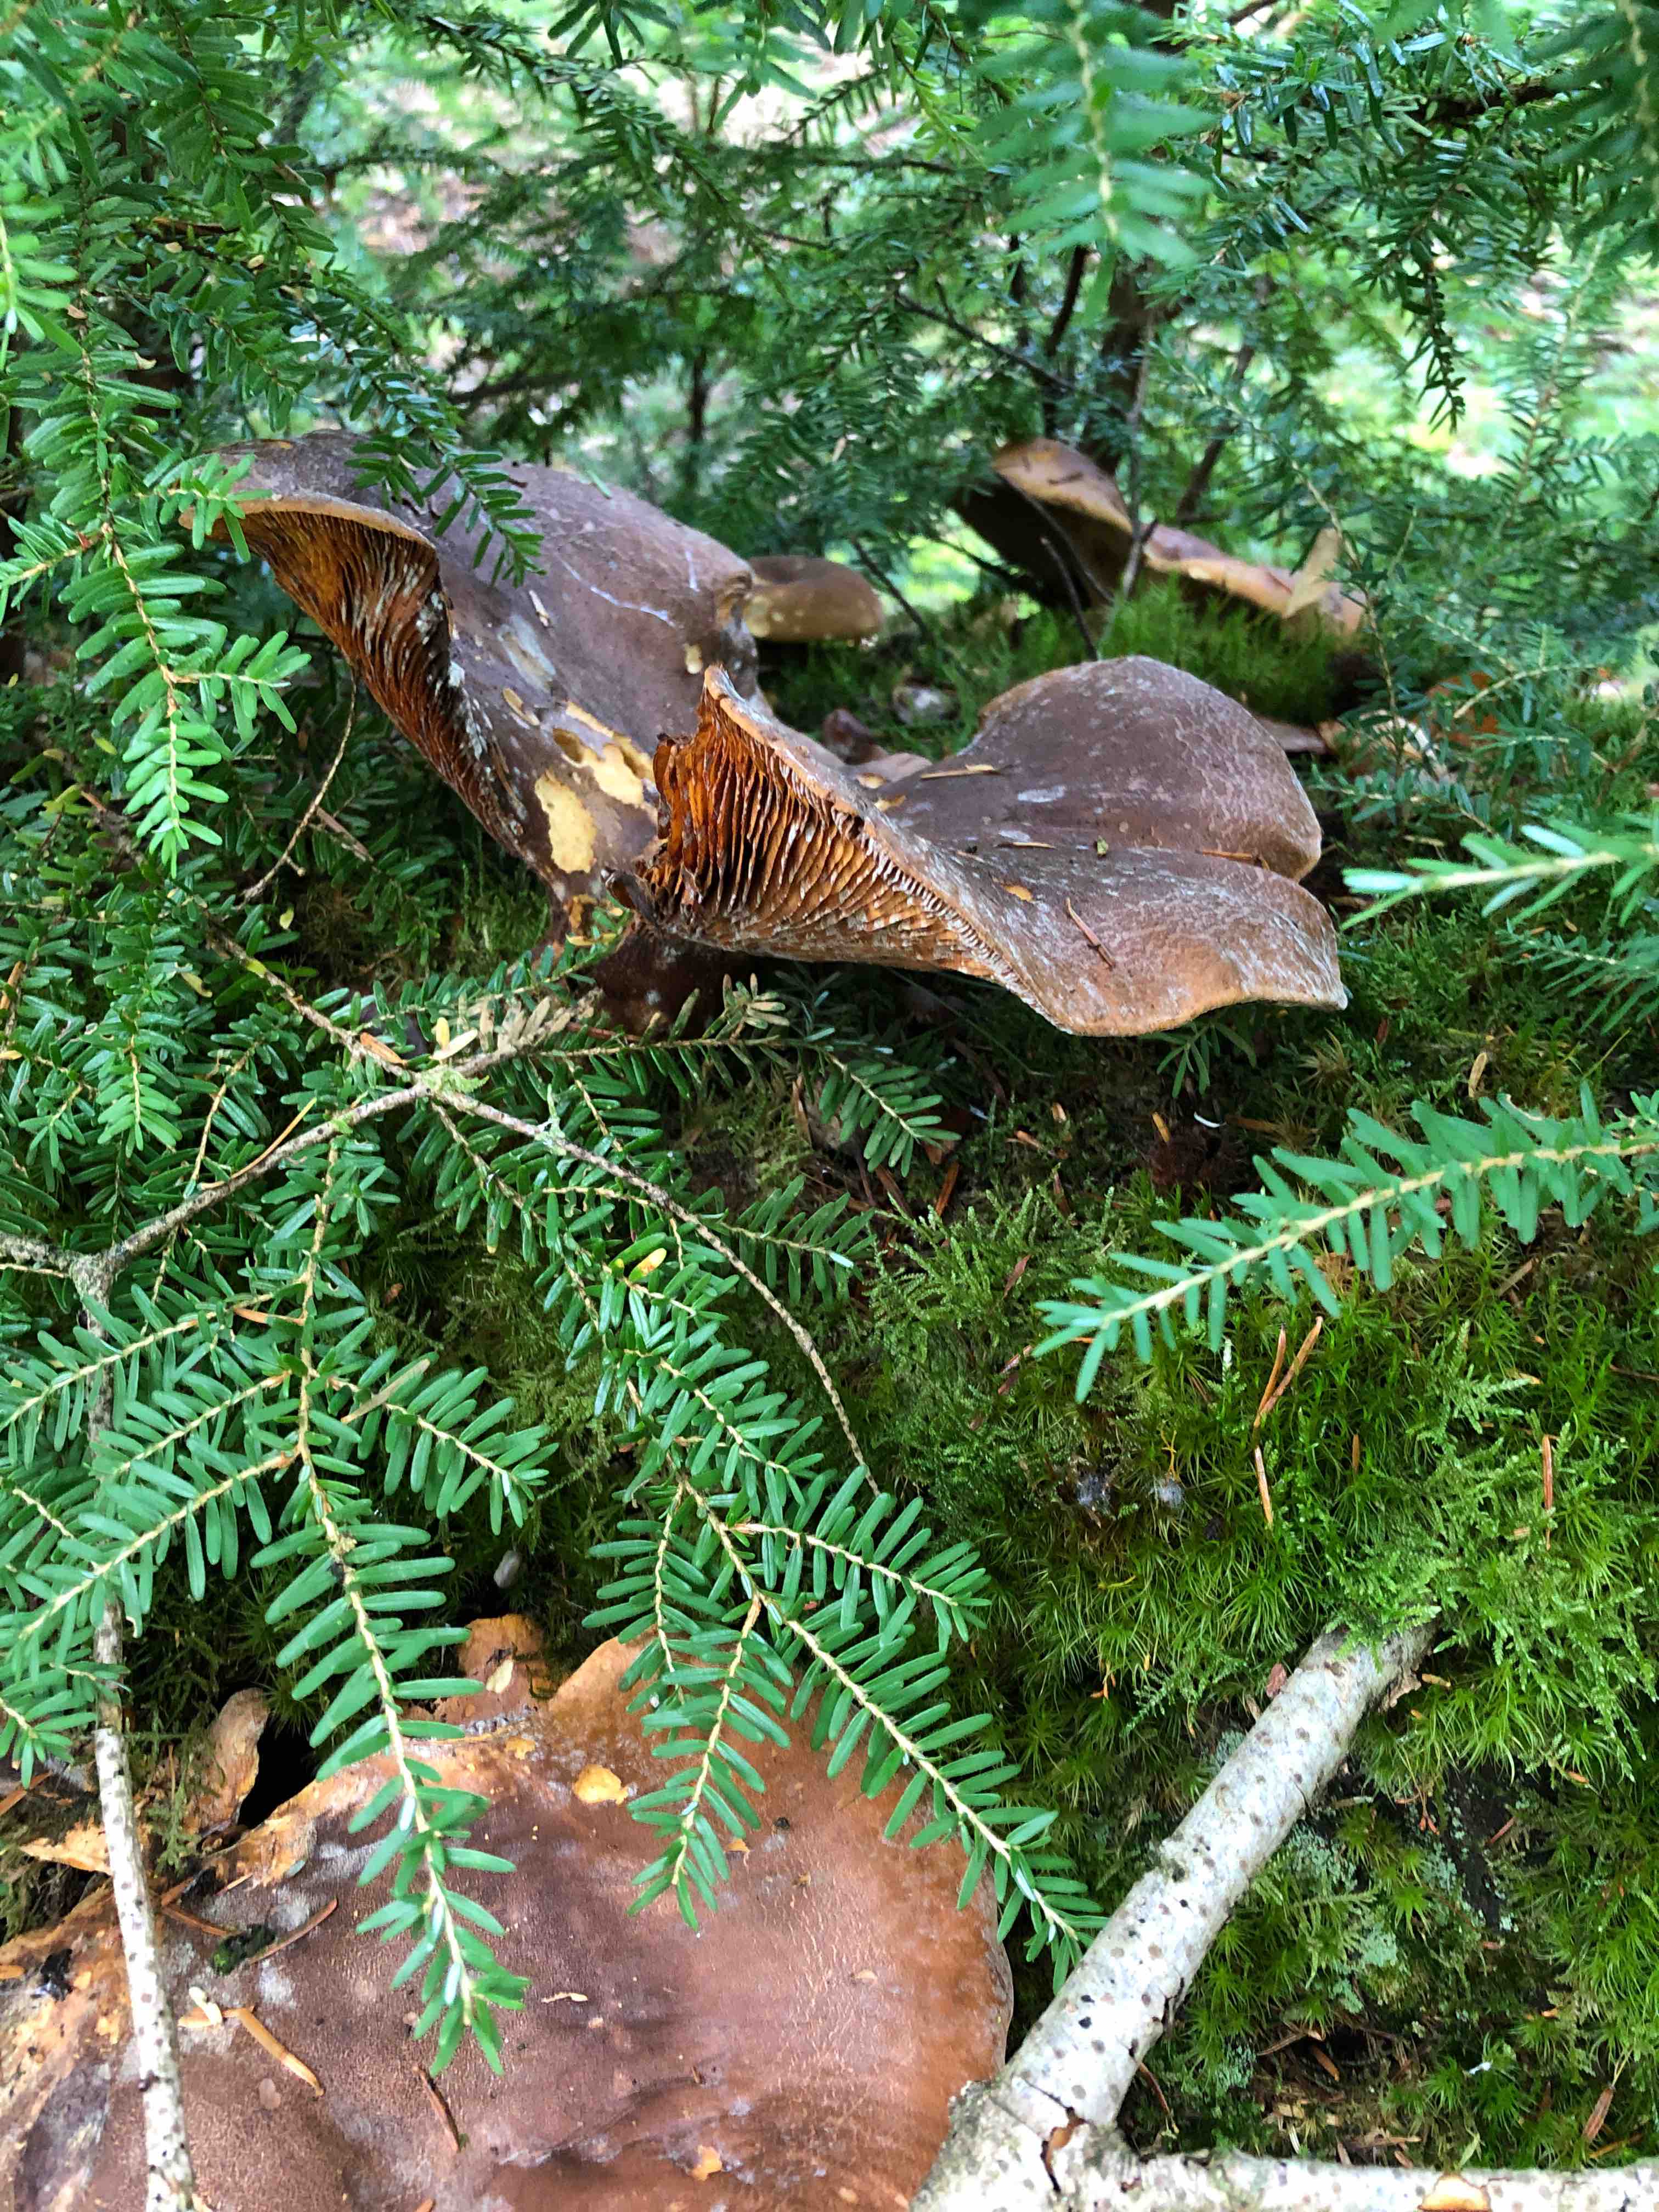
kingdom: Fungi
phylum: Basidiomycota
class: Agaricomycetes
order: Boletales
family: Tapinellaceae
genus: Tapinella
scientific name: Tapinella atrotomentosa
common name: sortfiltet viftesvamp
